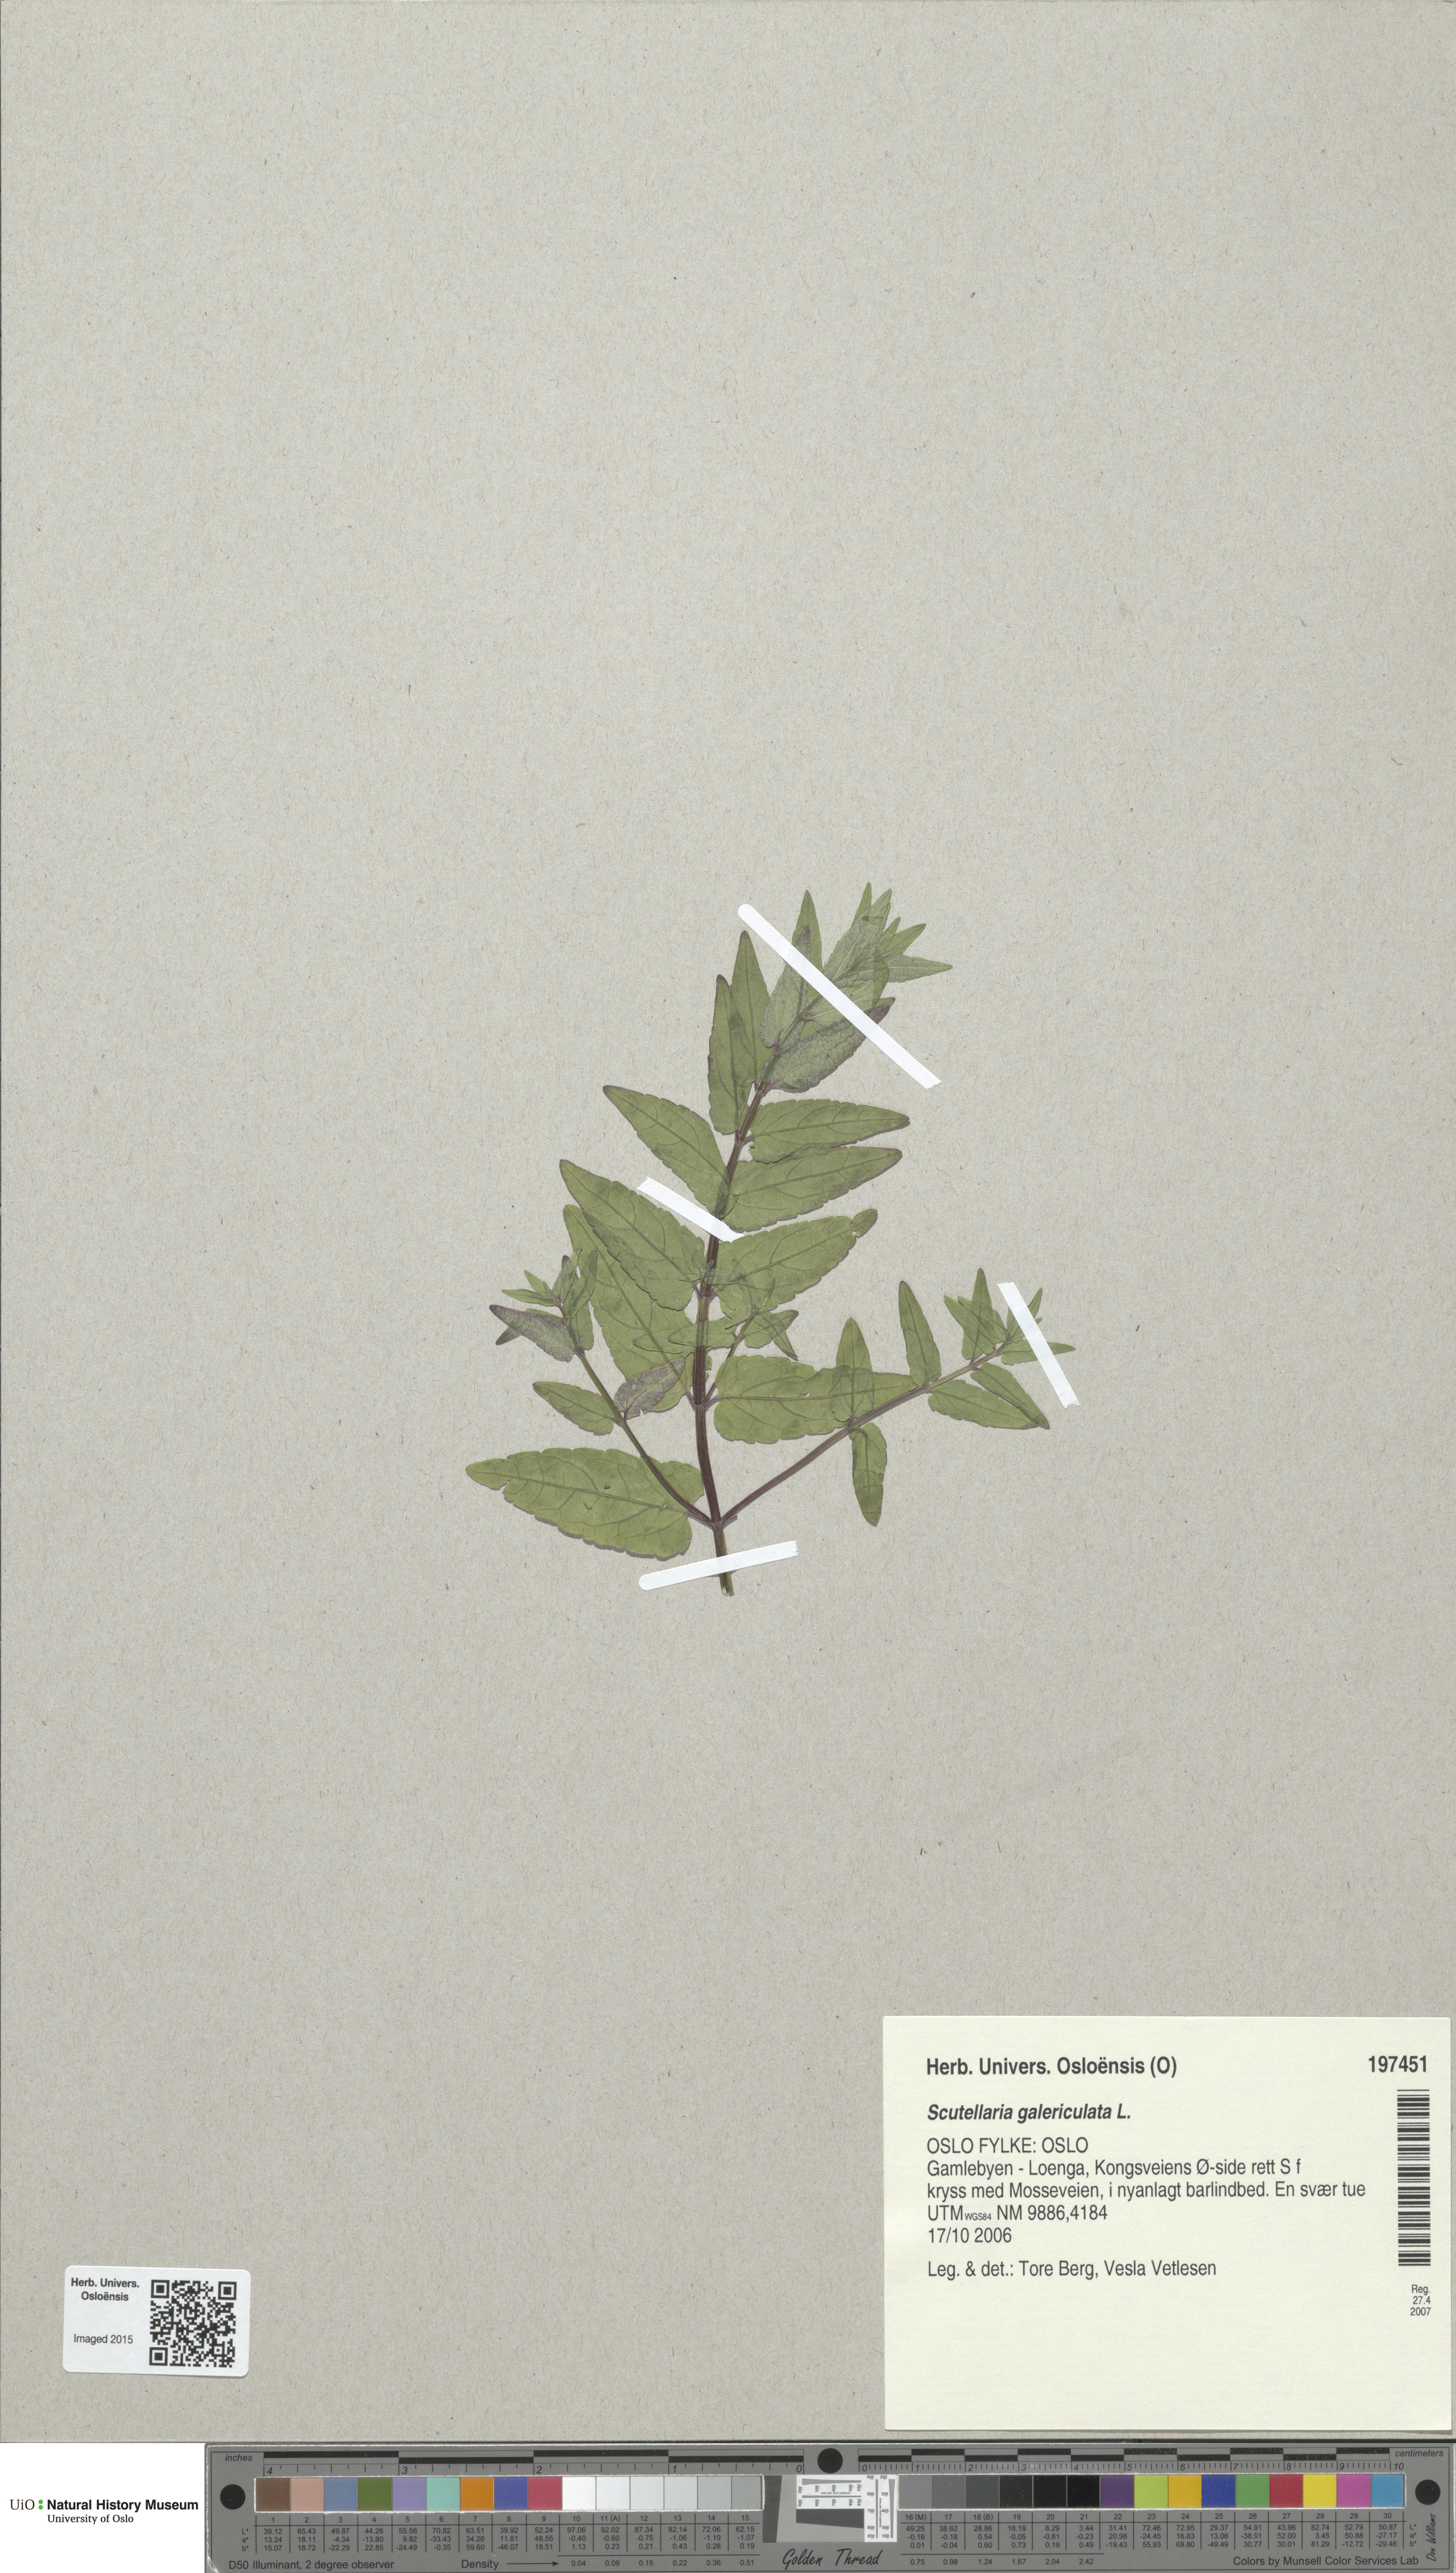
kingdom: Plantae
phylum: Tracheophyta
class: Magnoliopsida
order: Lamiales
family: Lamiaceae
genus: Scutellaria
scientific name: Scutellaria galericulata
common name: Skullcap
